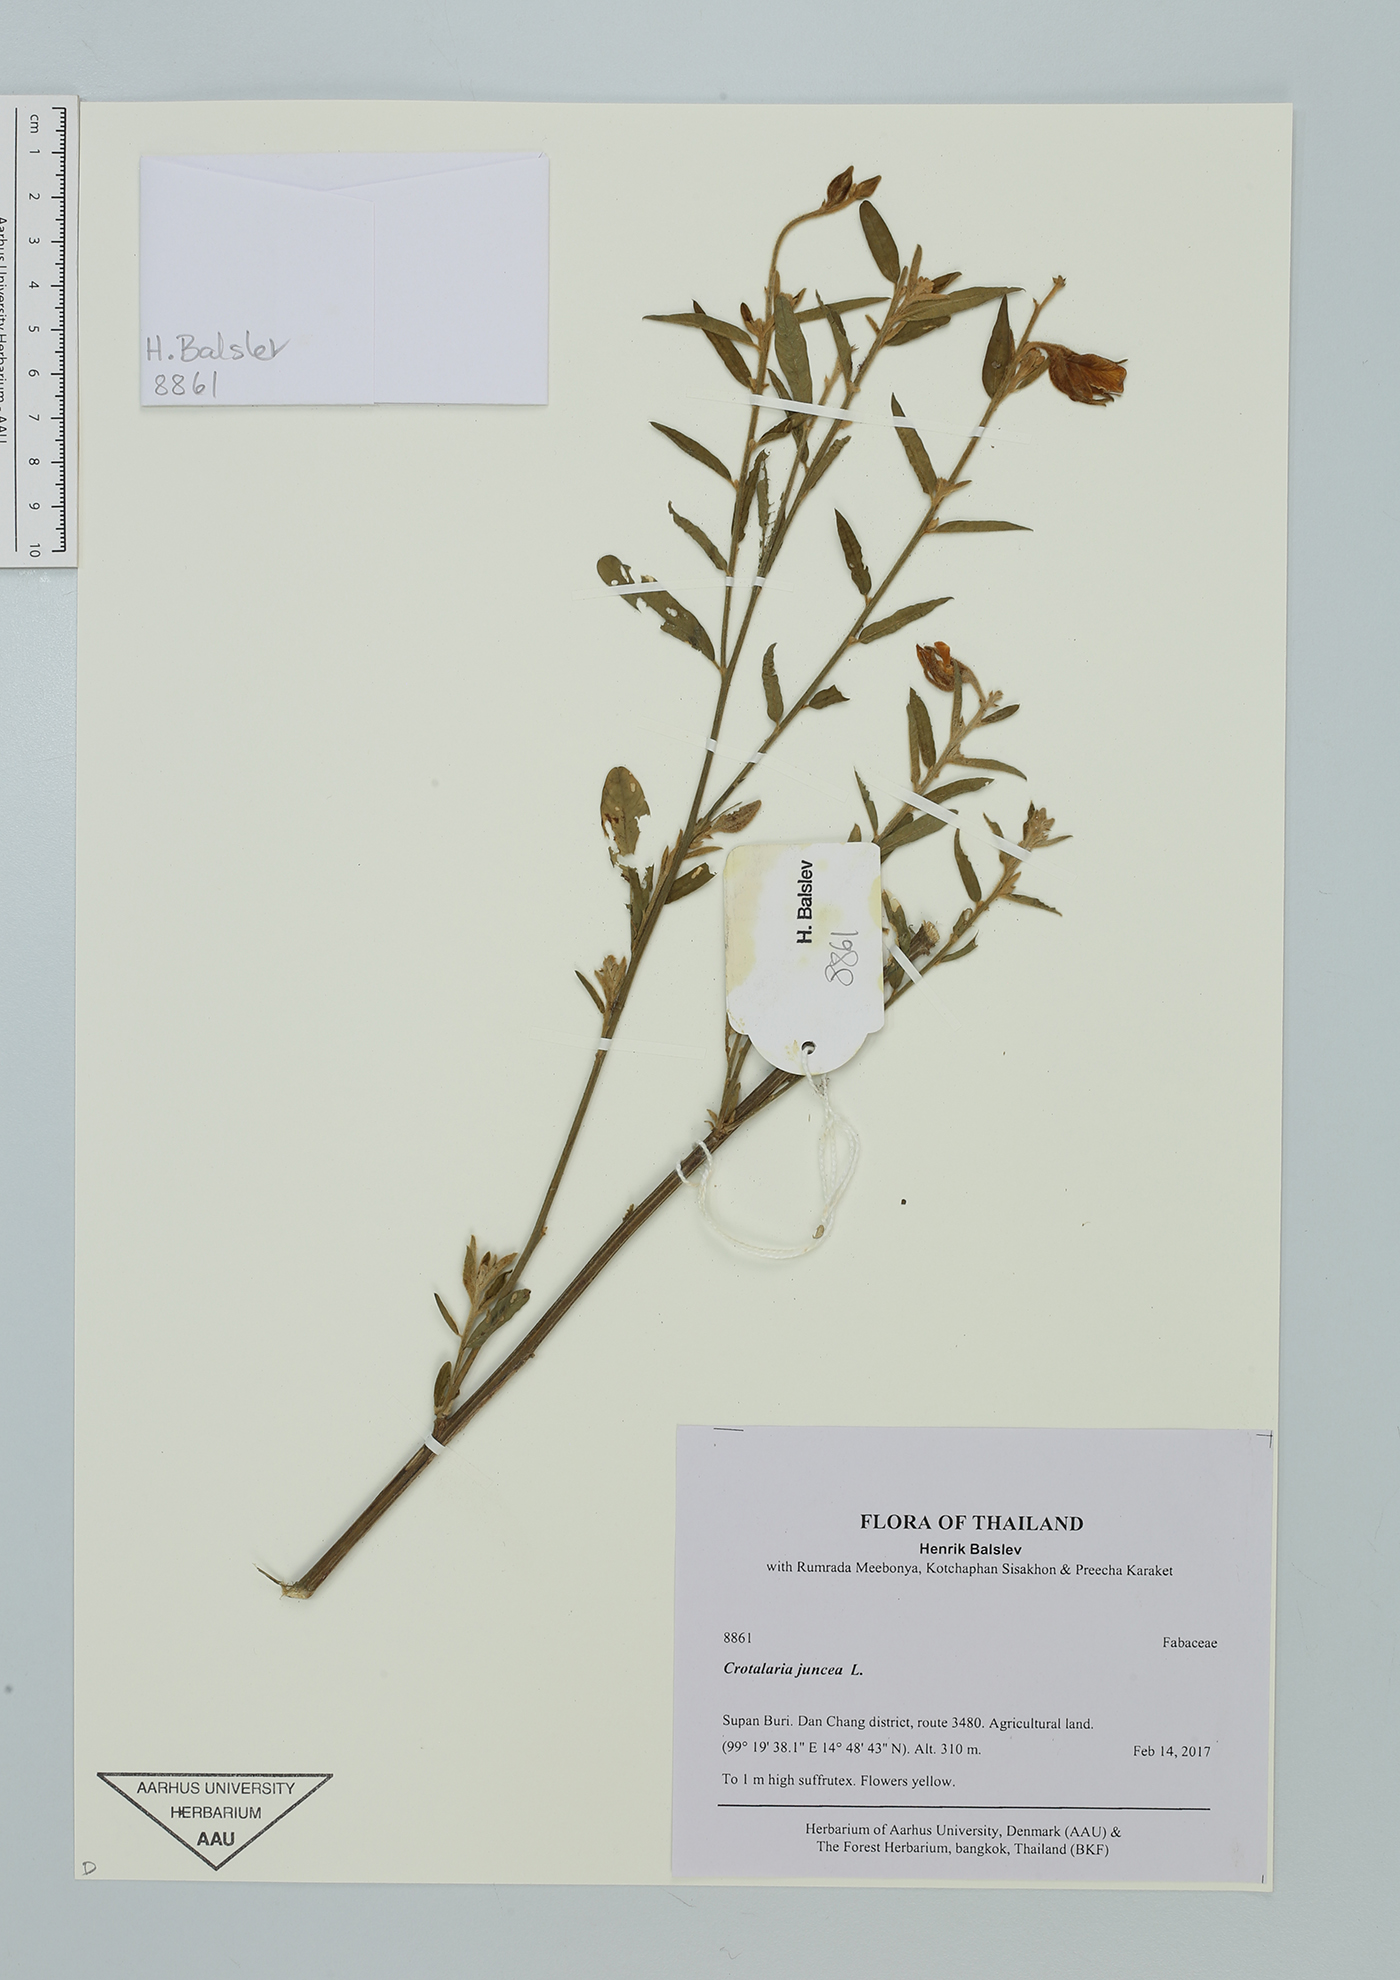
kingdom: Plantae
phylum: Tracheophyta
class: Magnoliopsida
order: Fabales
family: Fabaceae
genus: Crotalaria
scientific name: Crotalaria juncea
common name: Sunn hemp
